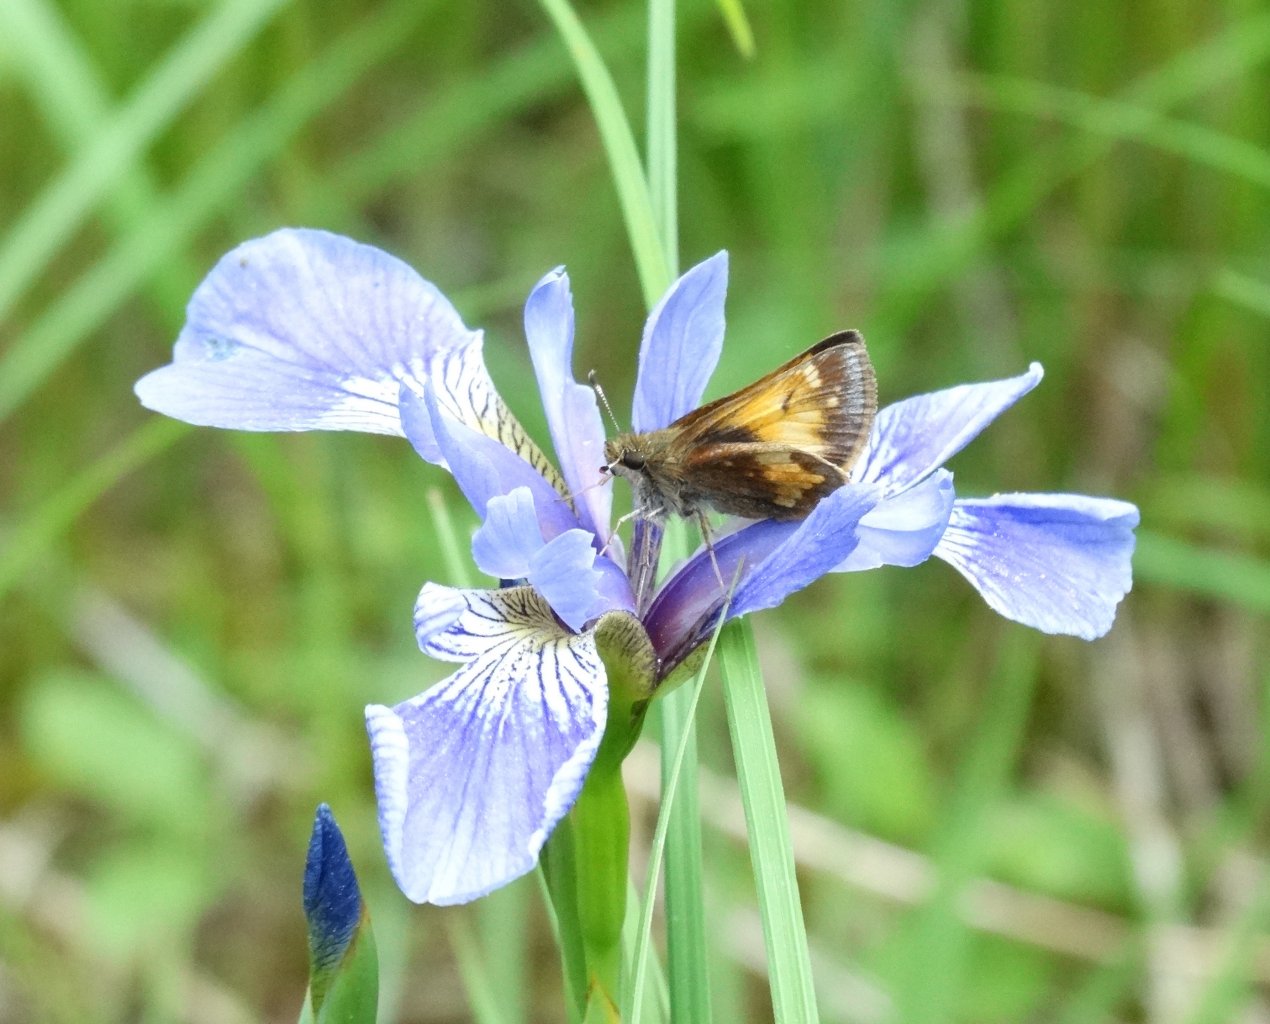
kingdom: Animalia
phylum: Arthropoda
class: Insecta
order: Lepidoptera
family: Hesperiidae
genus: Lon
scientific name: Lon hobomok
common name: Hobomok Skipper
